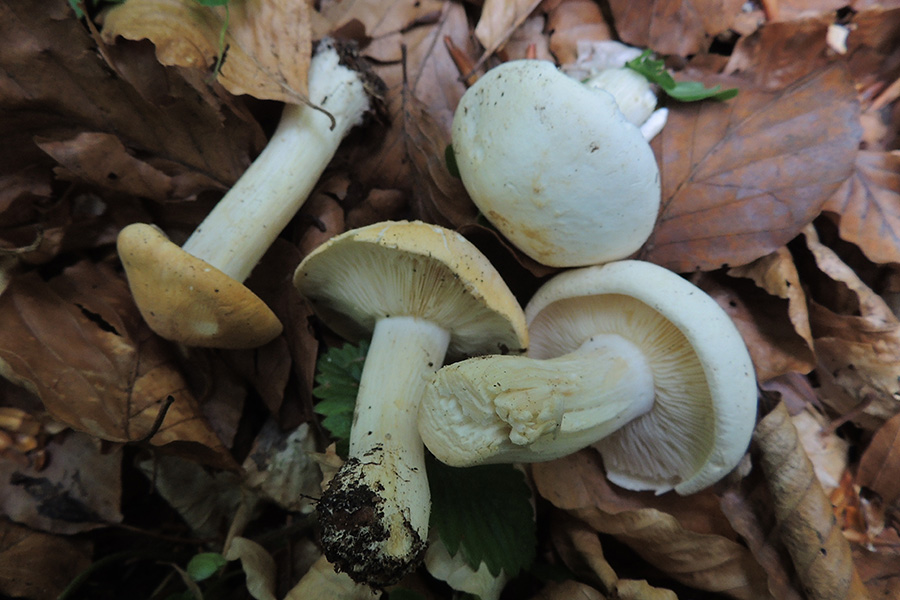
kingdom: Fungi
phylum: Basidiomycota
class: Agaricomycetes
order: Agaricales
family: Lyophyllaceae
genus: Calocybe
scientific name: Calocybe gambosa
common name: vårmusseron
